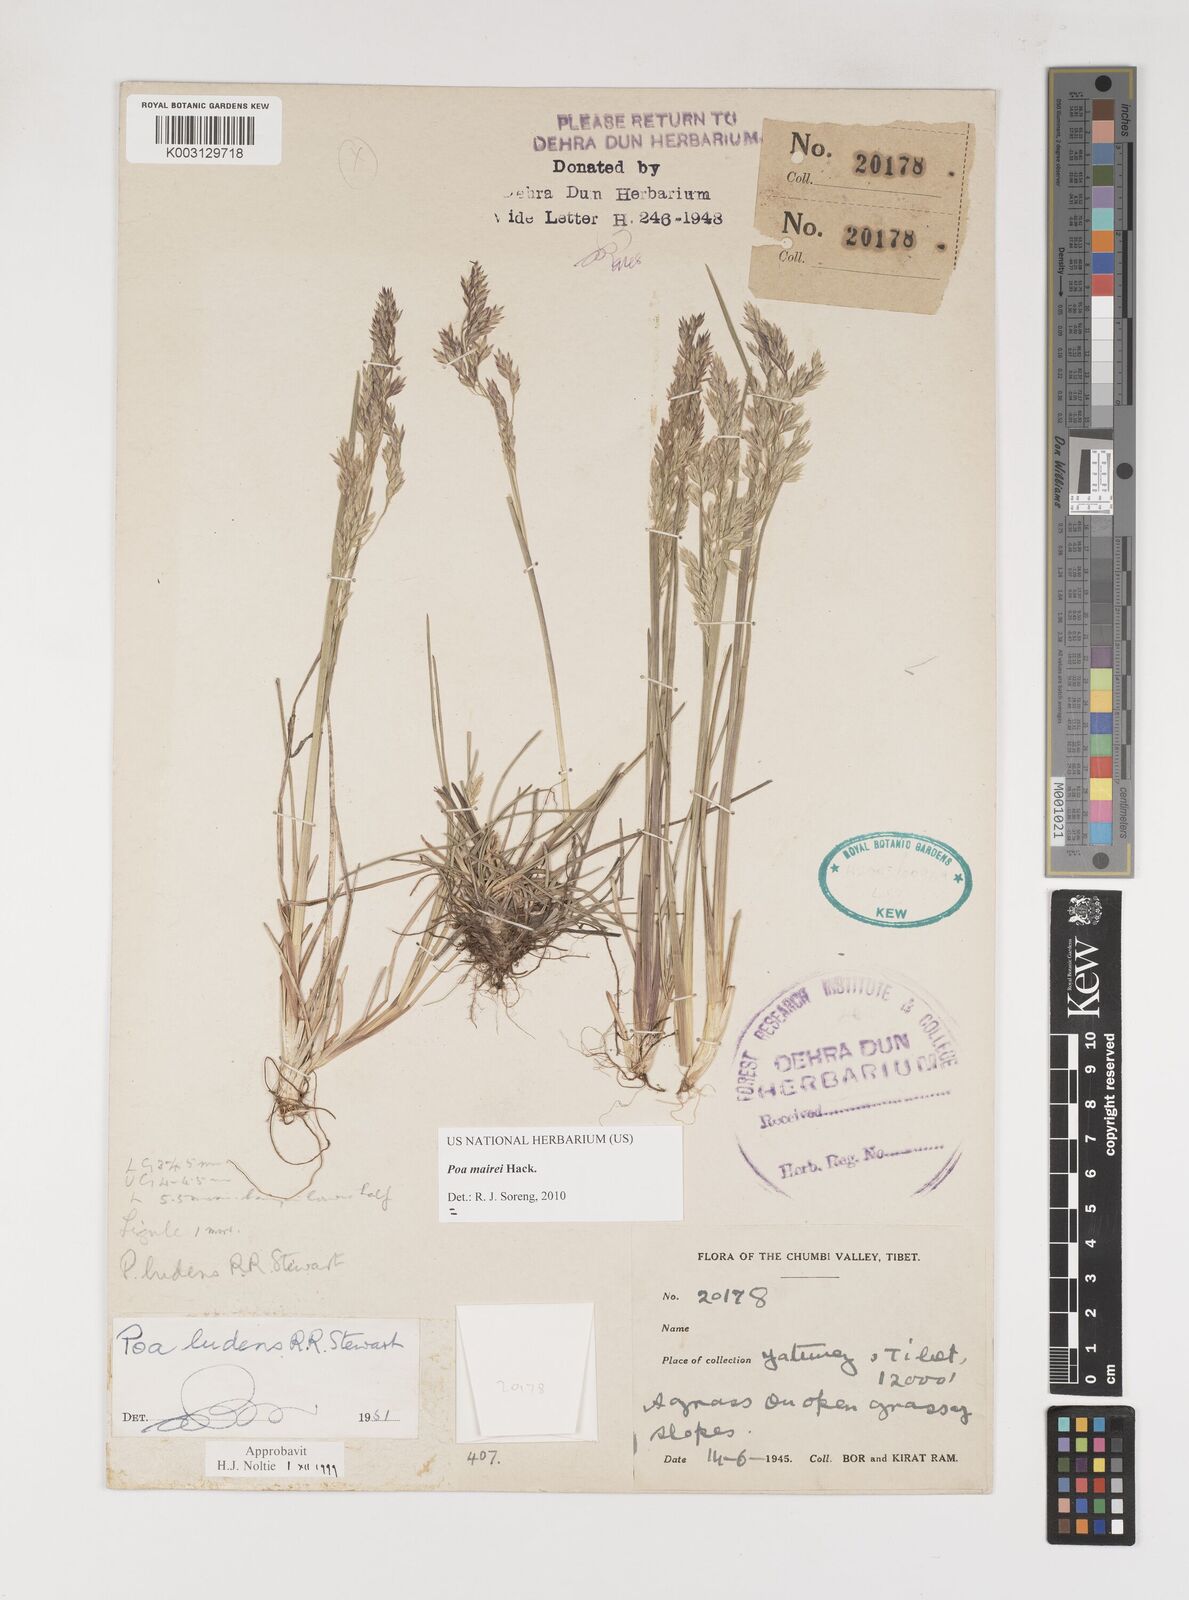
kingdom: Plantae
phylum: Tracheophyta
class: Liliopsida
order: Poales
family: Poaceae
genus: Poa
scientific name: Poa mairei
